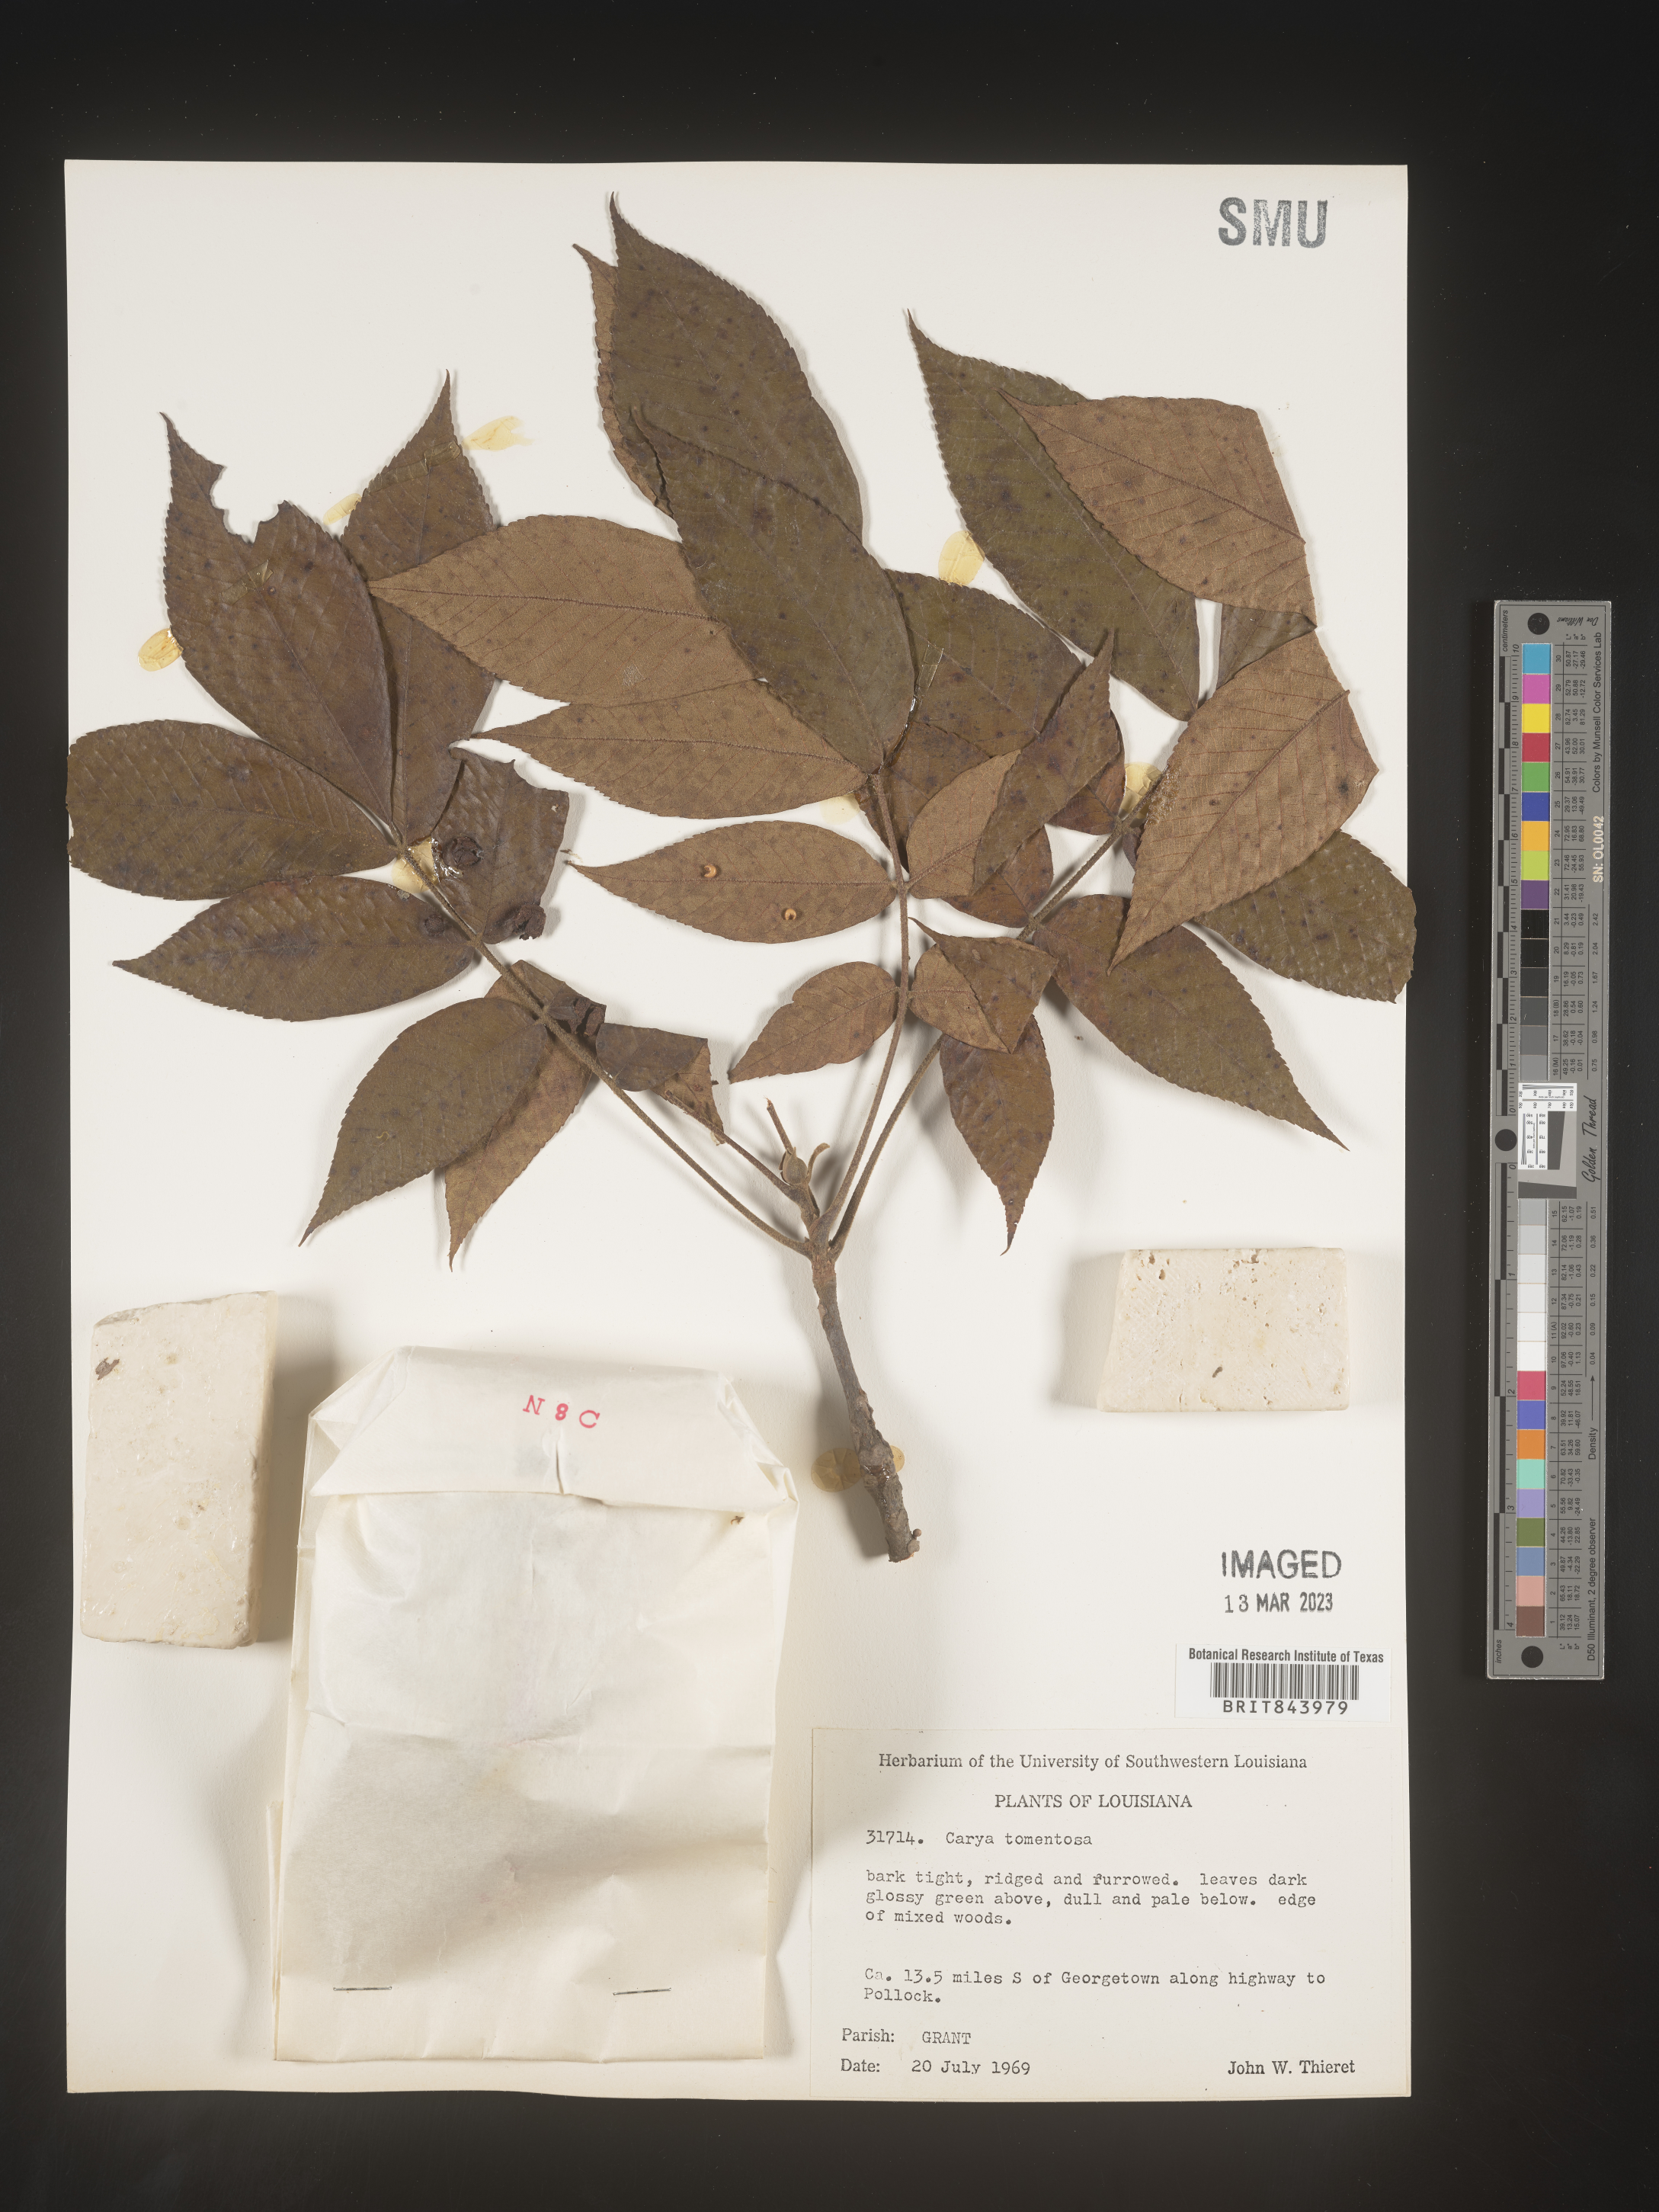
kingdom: Plantae
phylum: Tracheophyta
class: Magnoliopsida
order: Fagales
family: Juglandaceae
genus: Carya
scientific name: Carya alba
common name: Mockernut hickory
